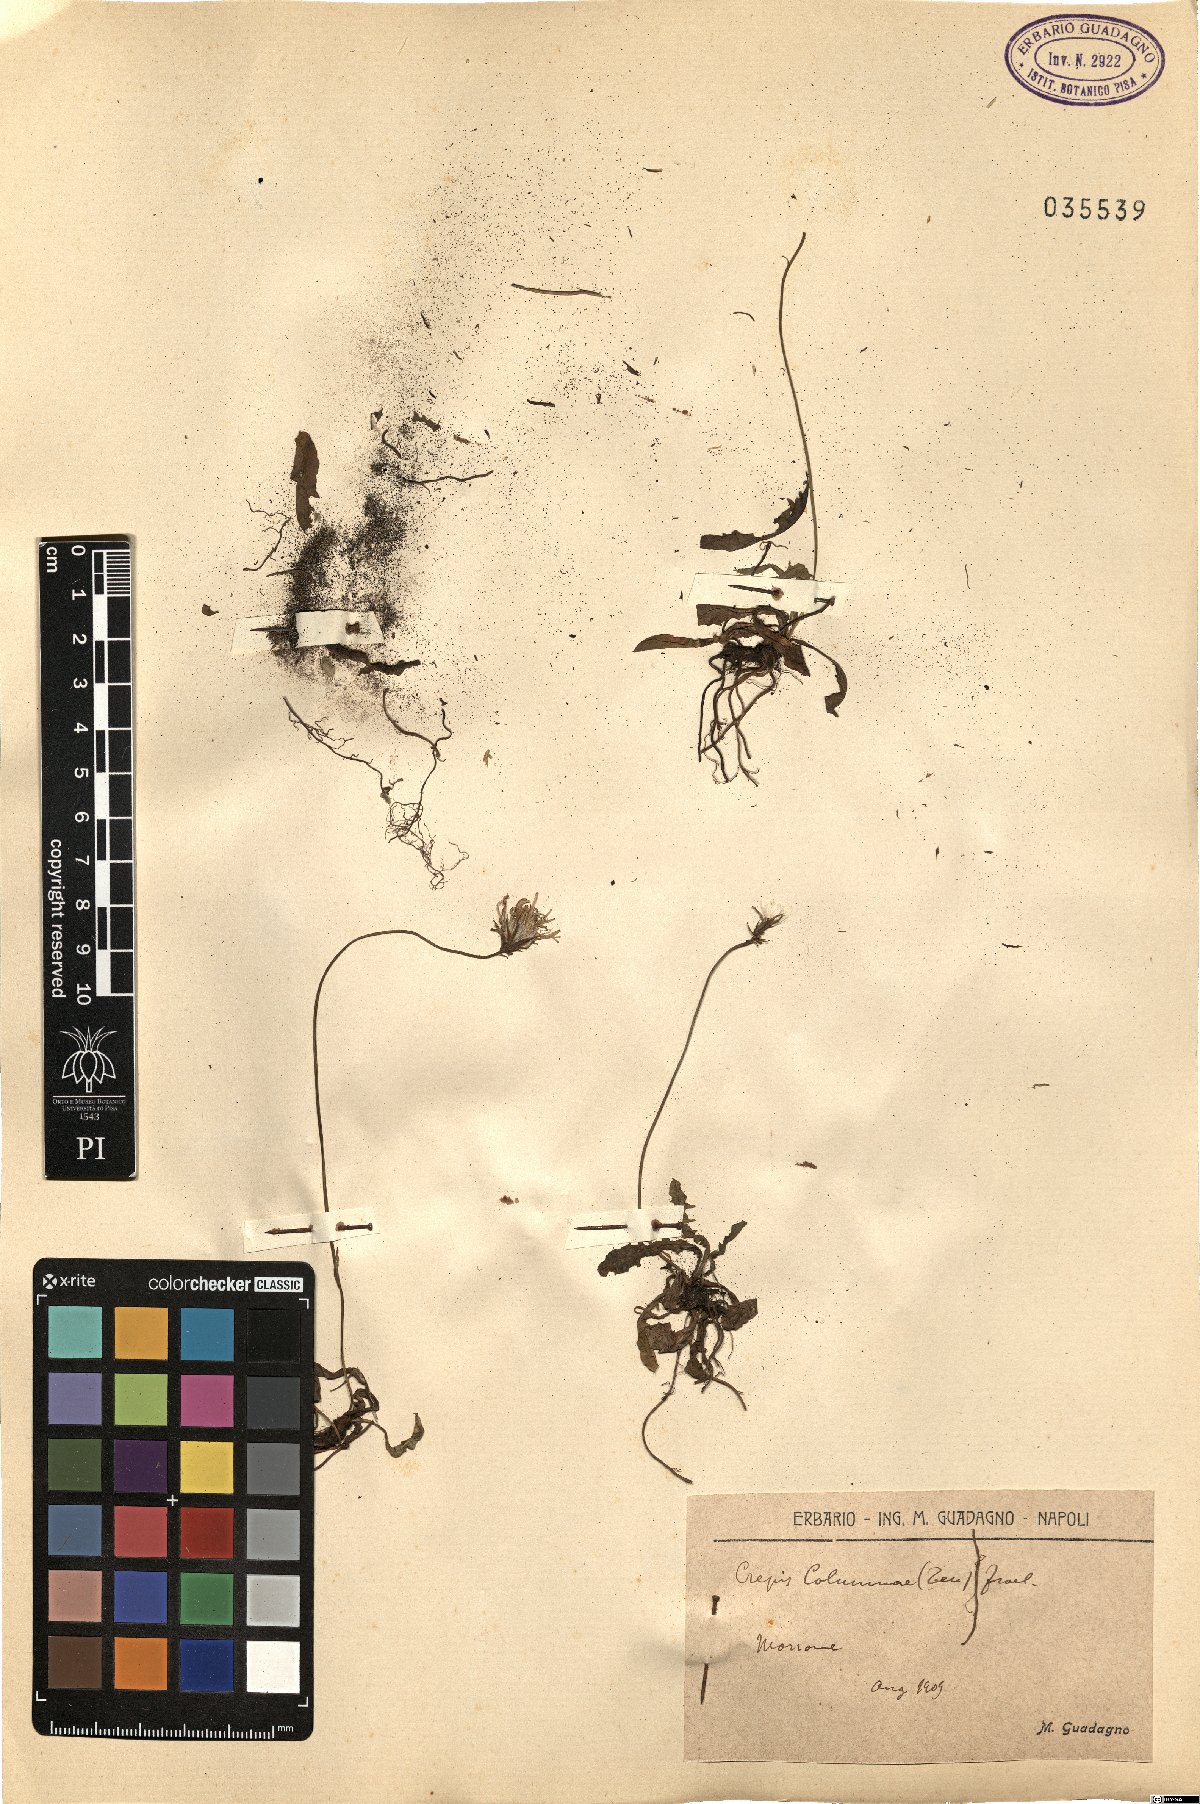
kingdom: Plantae
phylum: Tracheophyta
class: Magnoliopsida
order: Asterales
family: Asteraceae
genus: Crepis
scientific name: Crepis aurea
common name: Golden hawk's-beard
